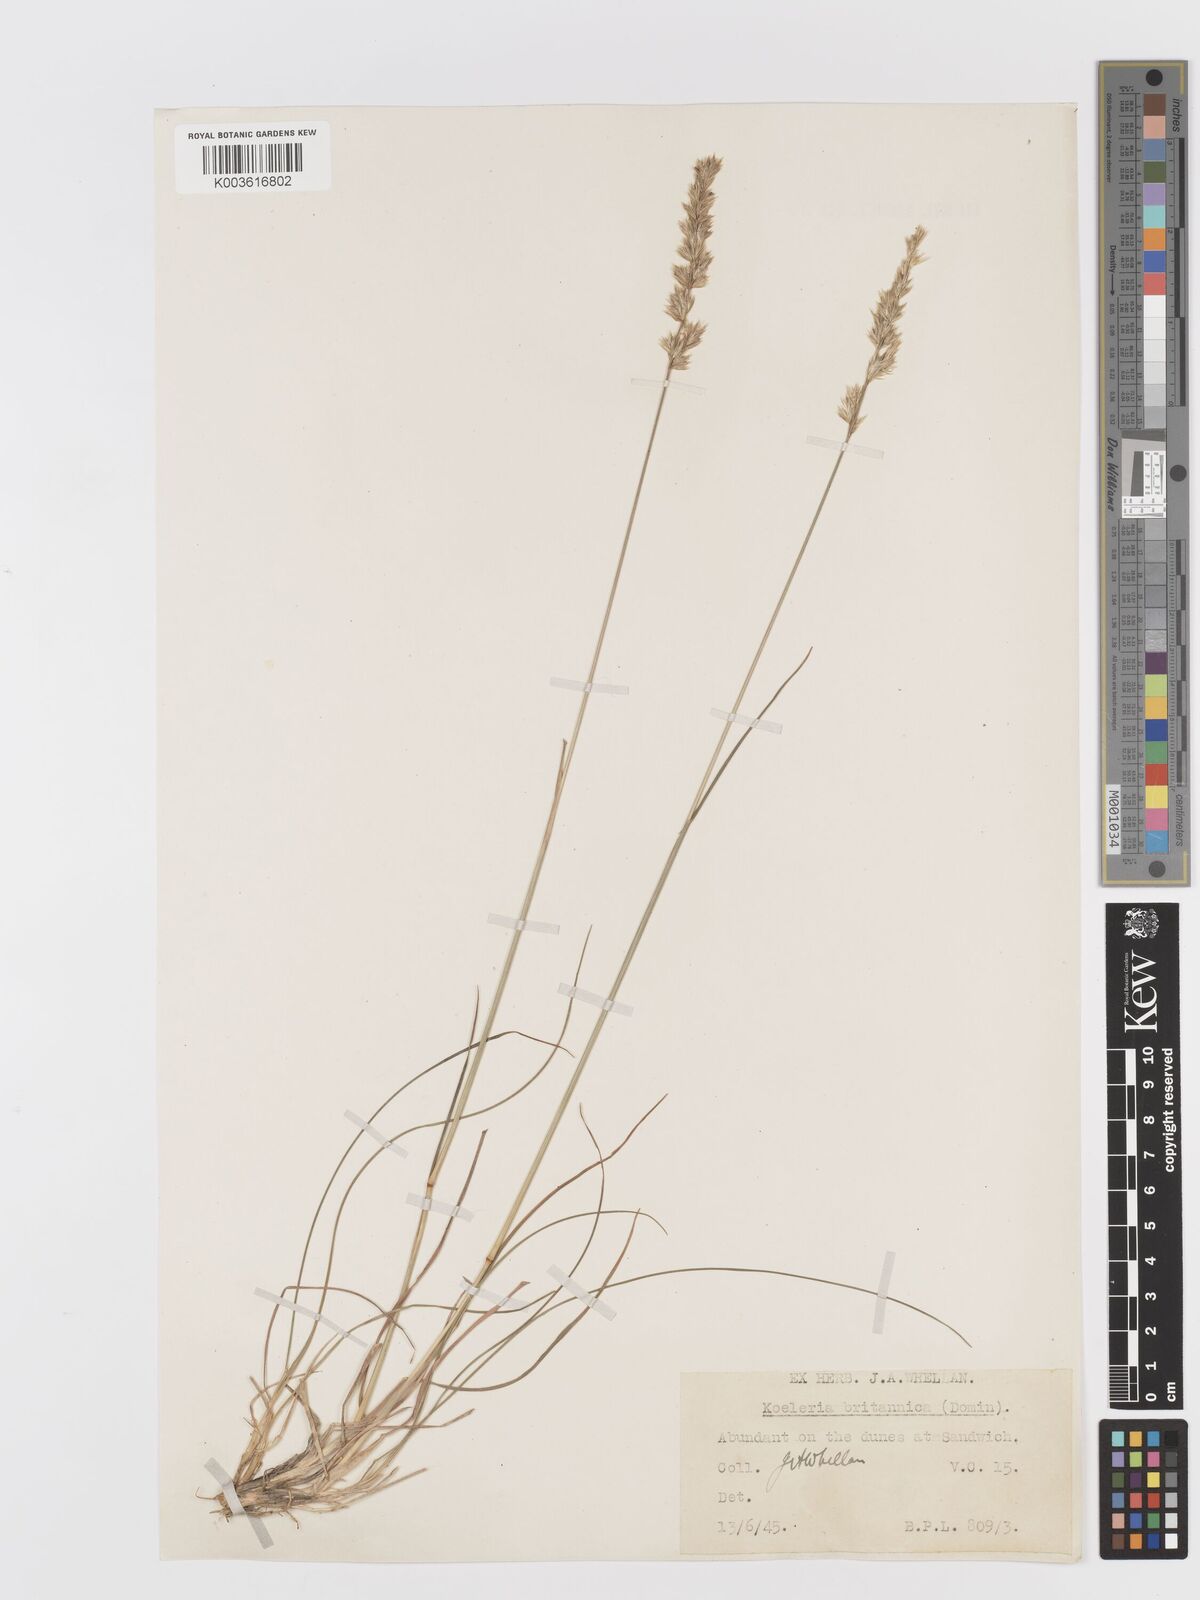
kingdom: Plantae
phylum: Tracheophyta
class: Liliopsida
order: Poales
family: Poaceae
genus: Koeleria
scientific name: Koeleria macrantha
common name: Crested hair-grass
